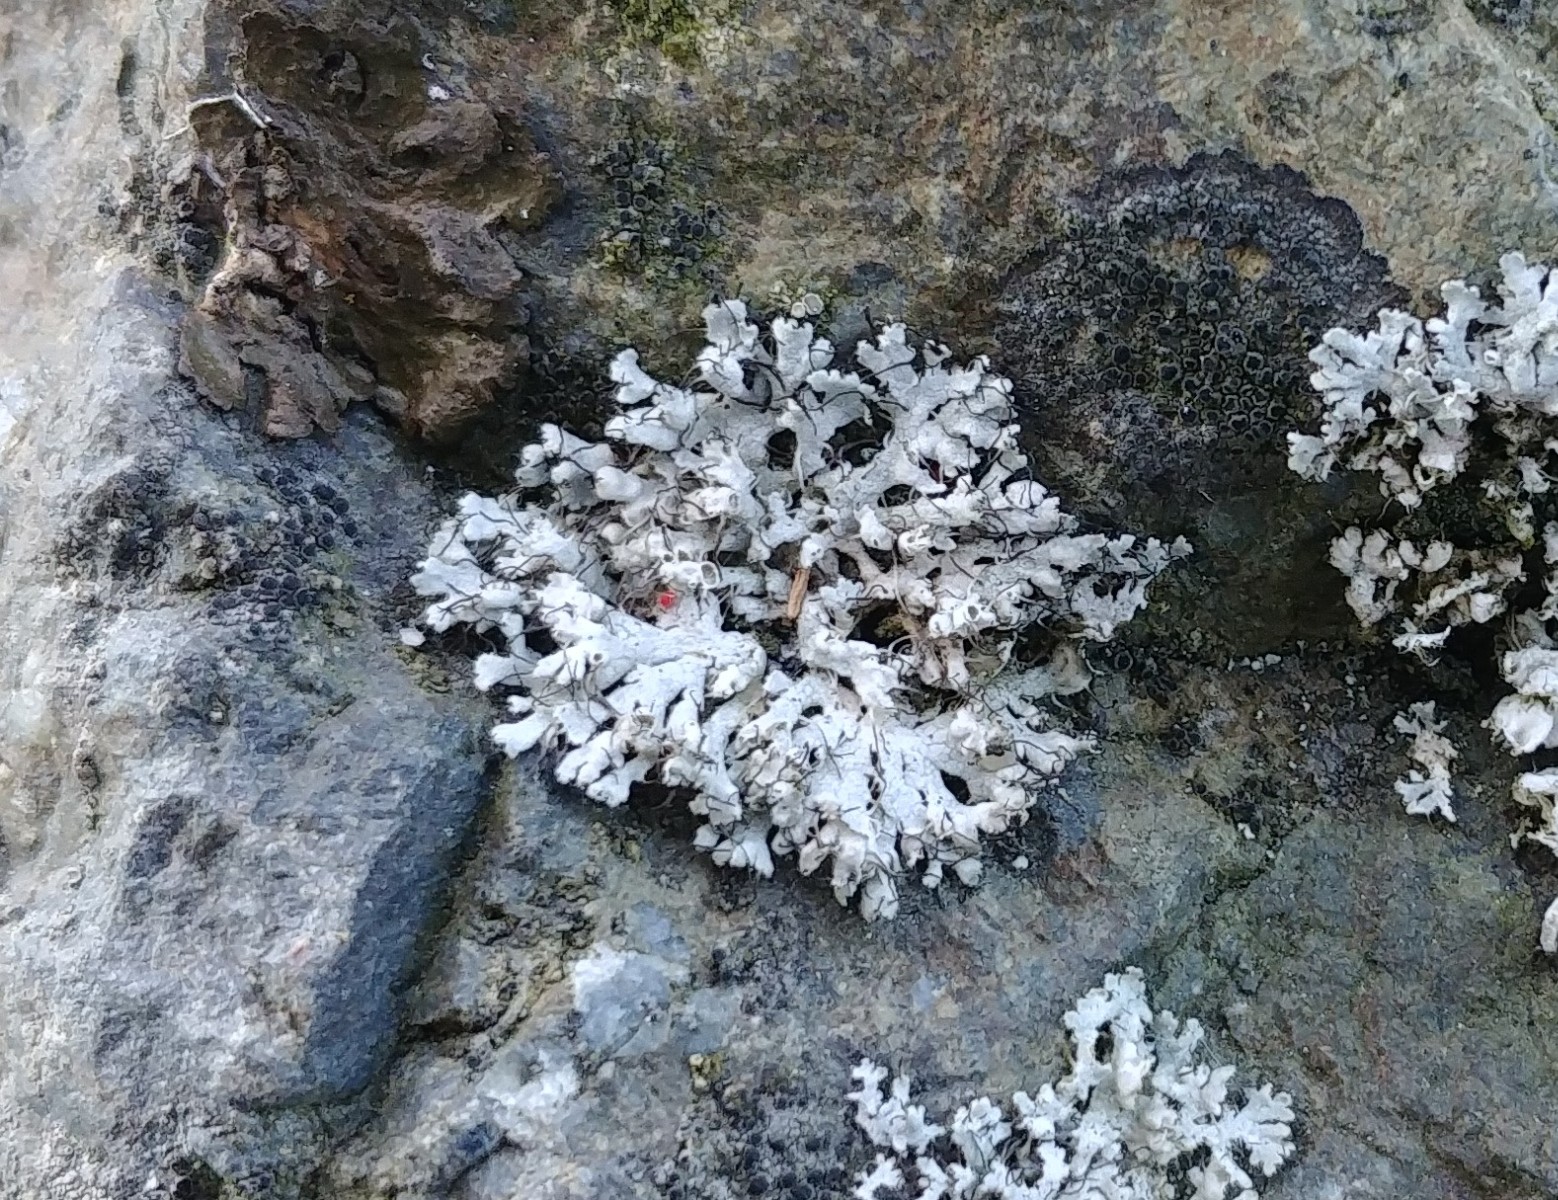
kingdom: Fungi
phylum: Ascomycota
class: Lecanoromycetes
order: Caliciales
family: Physciaceae
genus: Physcia
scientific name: Physcia tenella
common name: spæd rosetlav
